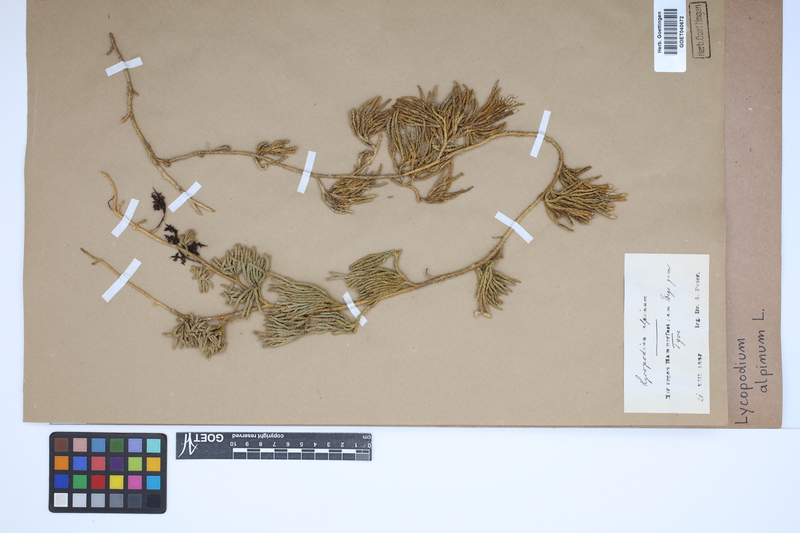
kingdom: Plantae
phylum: Tracheophyta
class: Lycopodiopsida
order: Lycopodiales
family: Lycopodiaceae
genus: Diphasiastrum
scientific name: Diphasiastrum alpinum
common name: Alpine clubmoss
